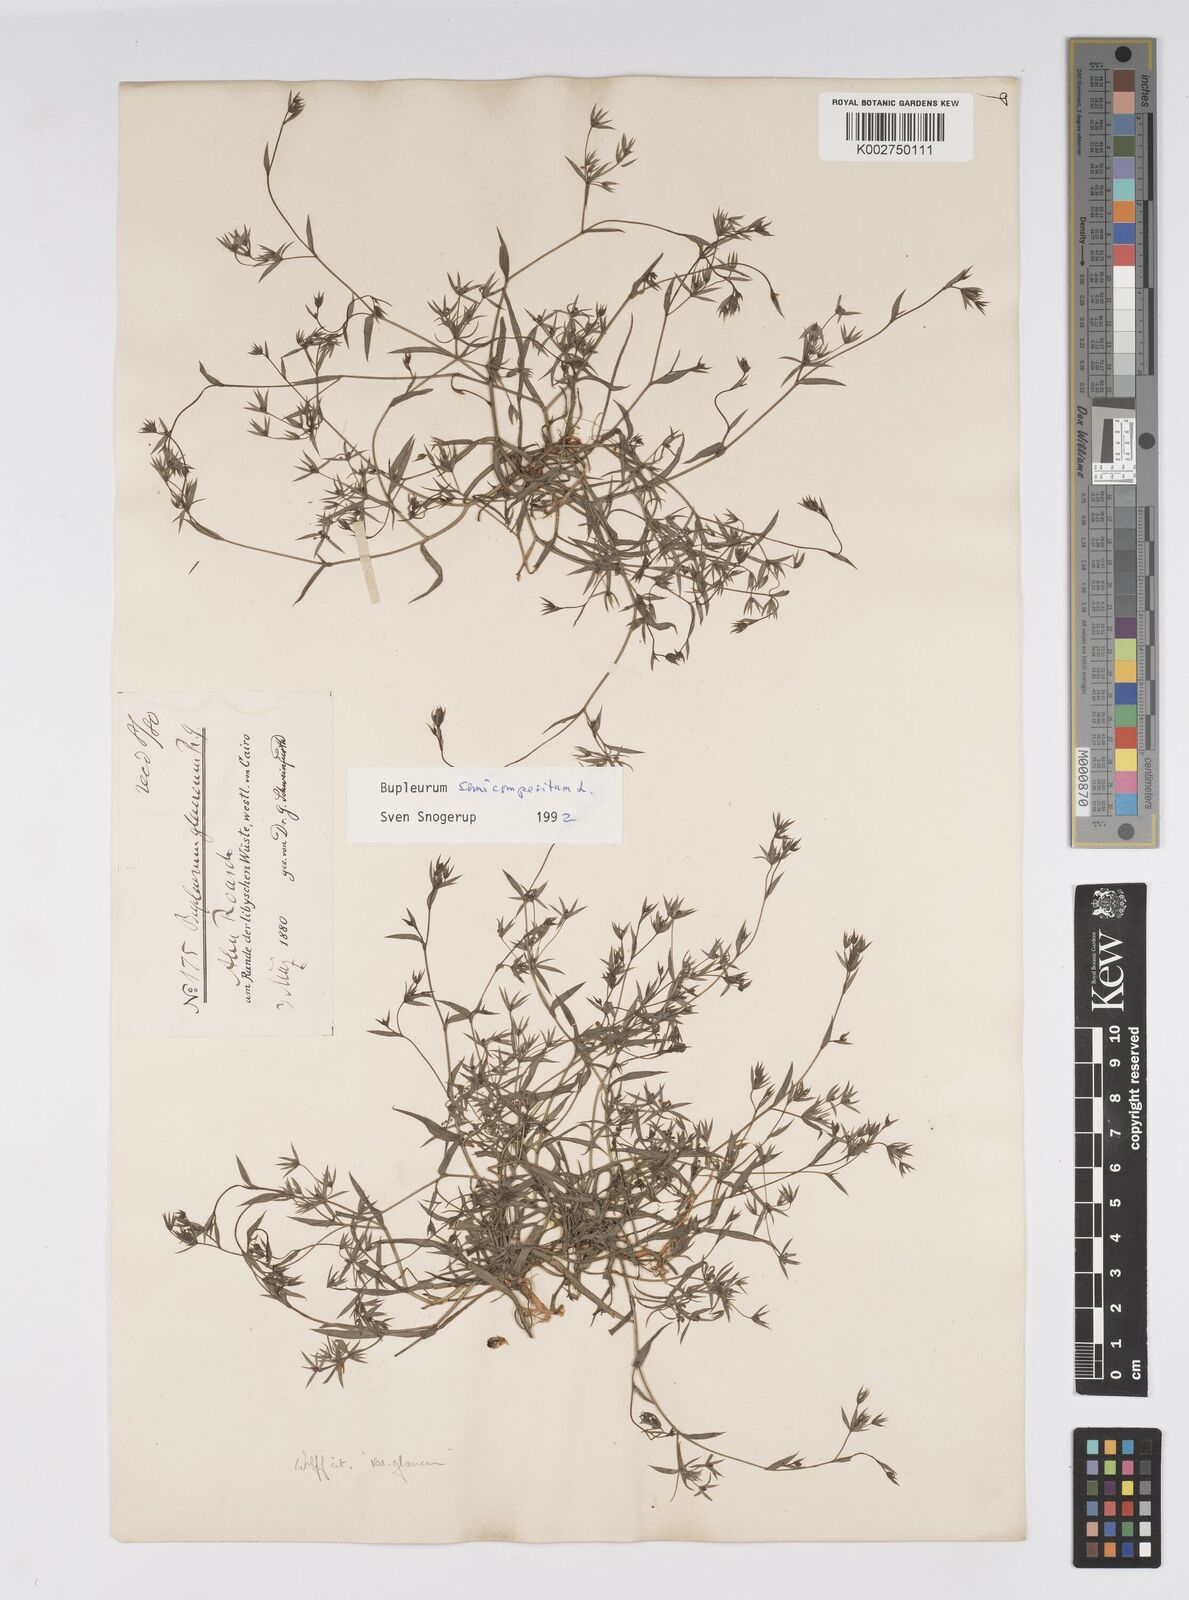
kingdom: Plantae
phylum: Tracheophyta
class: Magnoliopsida
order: Apiales
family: Apiaceae
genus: Bupleurum
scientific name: Bupleurum semicompositum
